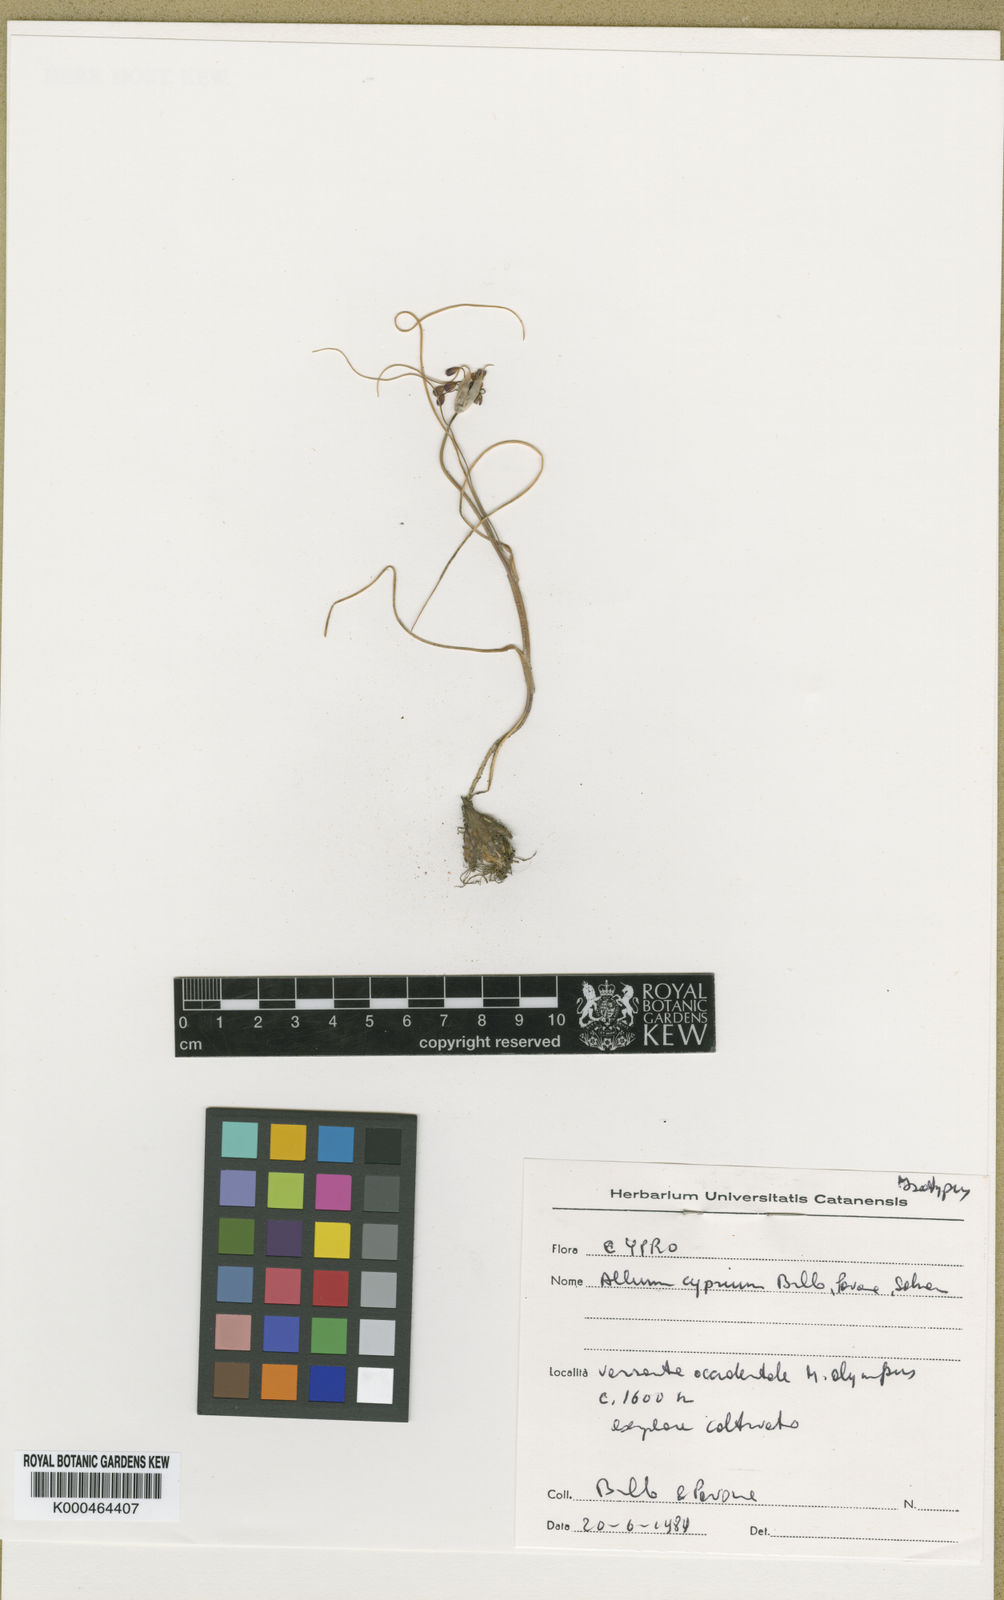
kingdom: Plantae
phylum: Tracheophyta
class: Liliopsida
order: Asparagales
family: Amaryllidaceae
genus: Allium
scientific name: Allium
